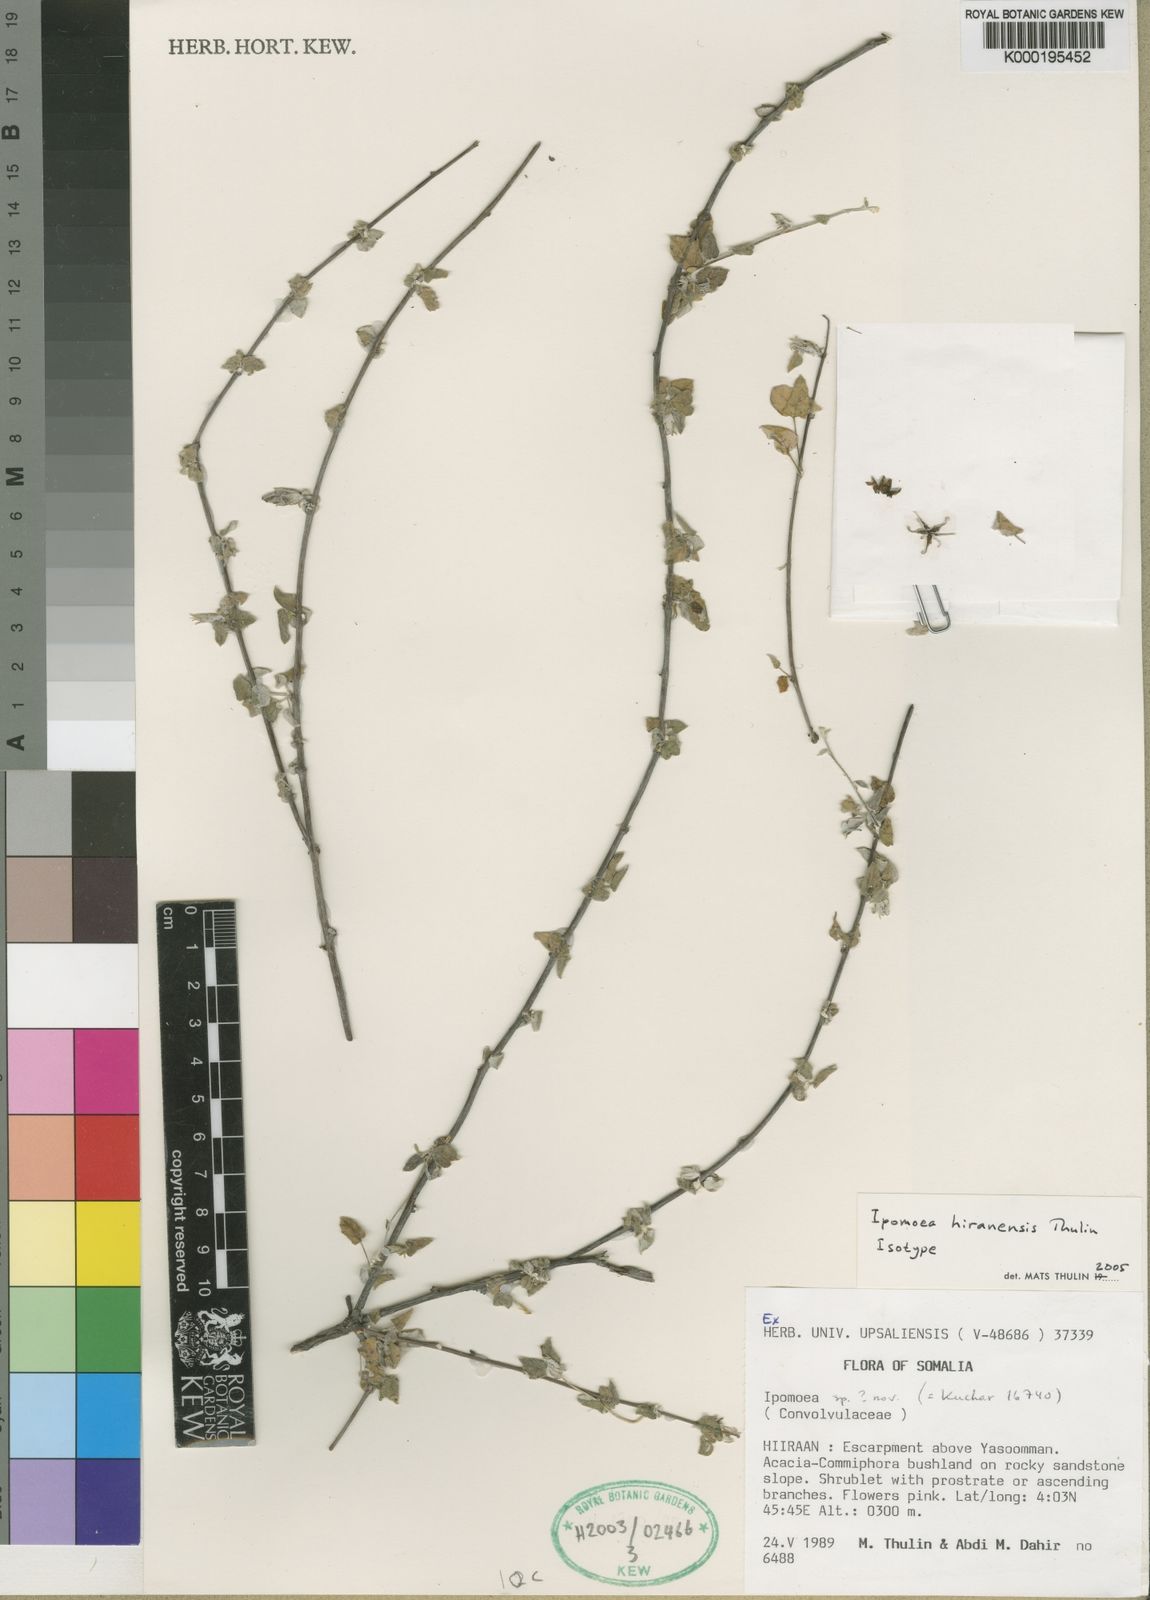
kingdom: Plantae
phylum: Tracheophyta
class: Magnoliopsida
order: Solanales
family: Convolvulaceae
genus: Ipomoea
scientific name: Ipomoea hiranensis
